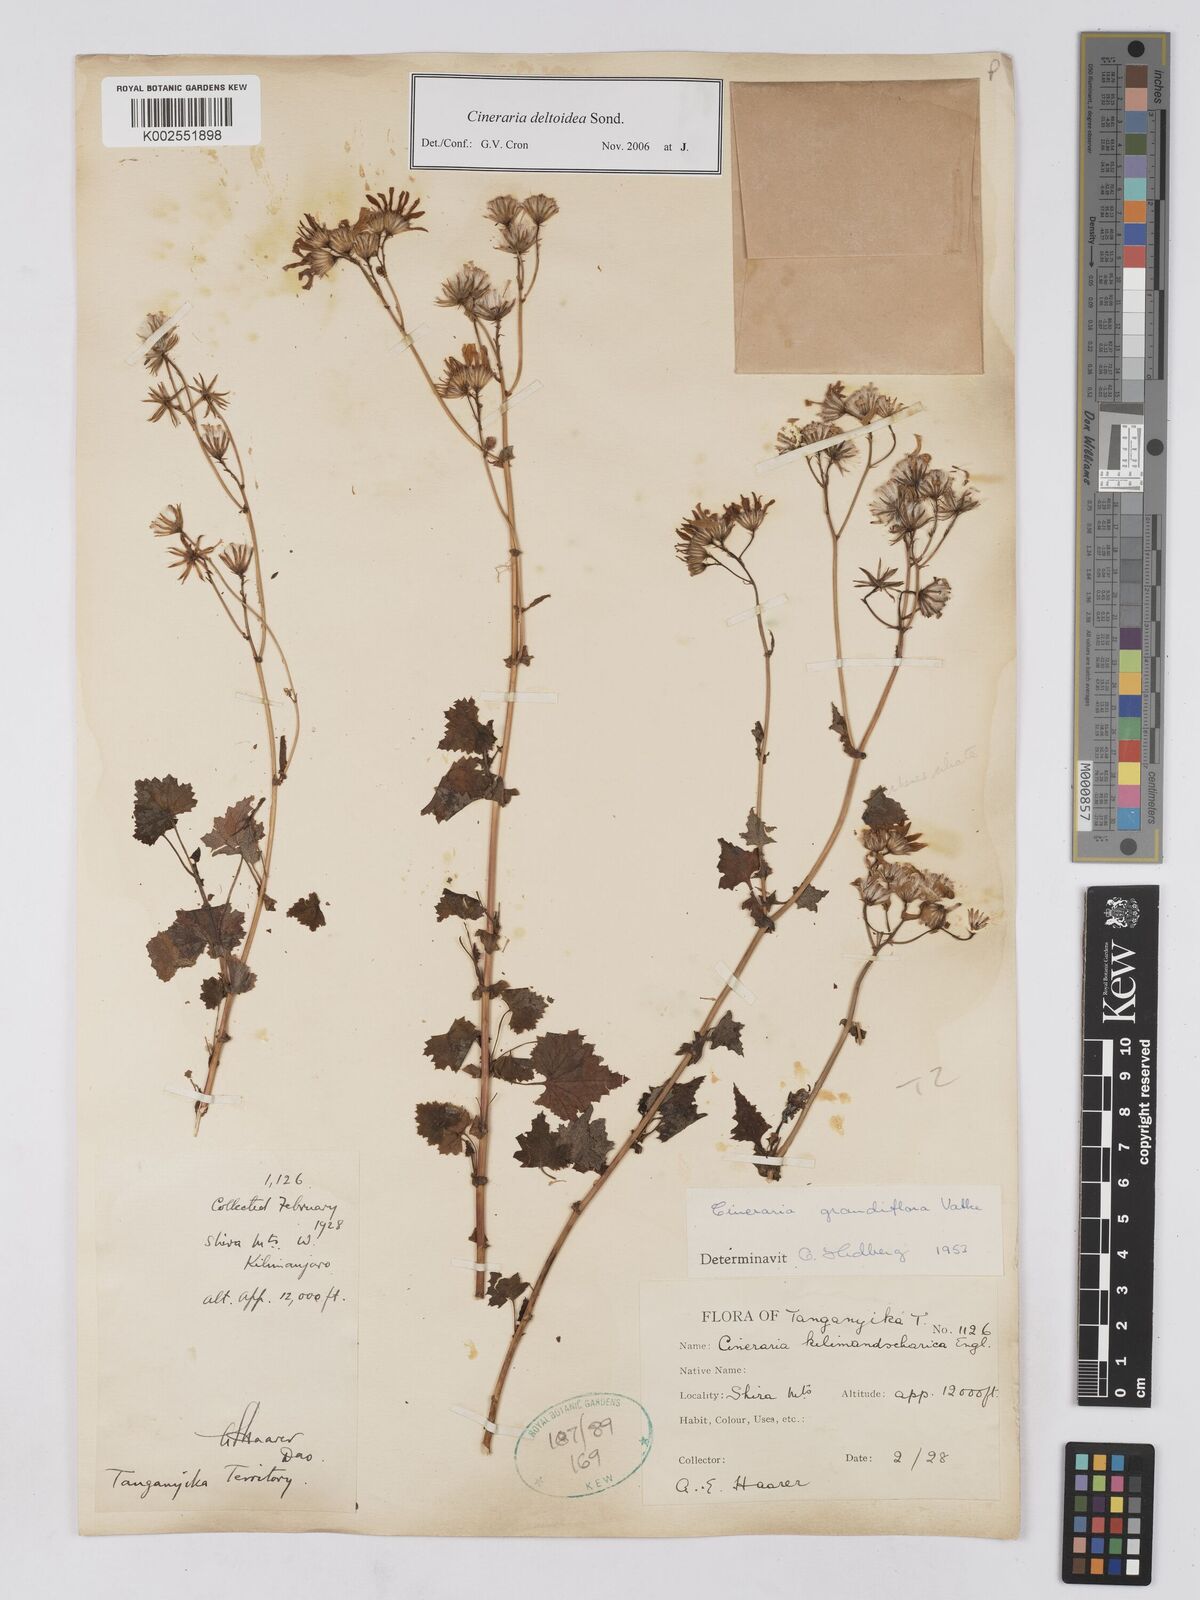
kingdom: Plantae
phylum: Tracheophyta
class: Magnoliopsida
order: Asterales
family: Asteraceae
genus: Cineraria
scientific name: Cineraria deltoidea
